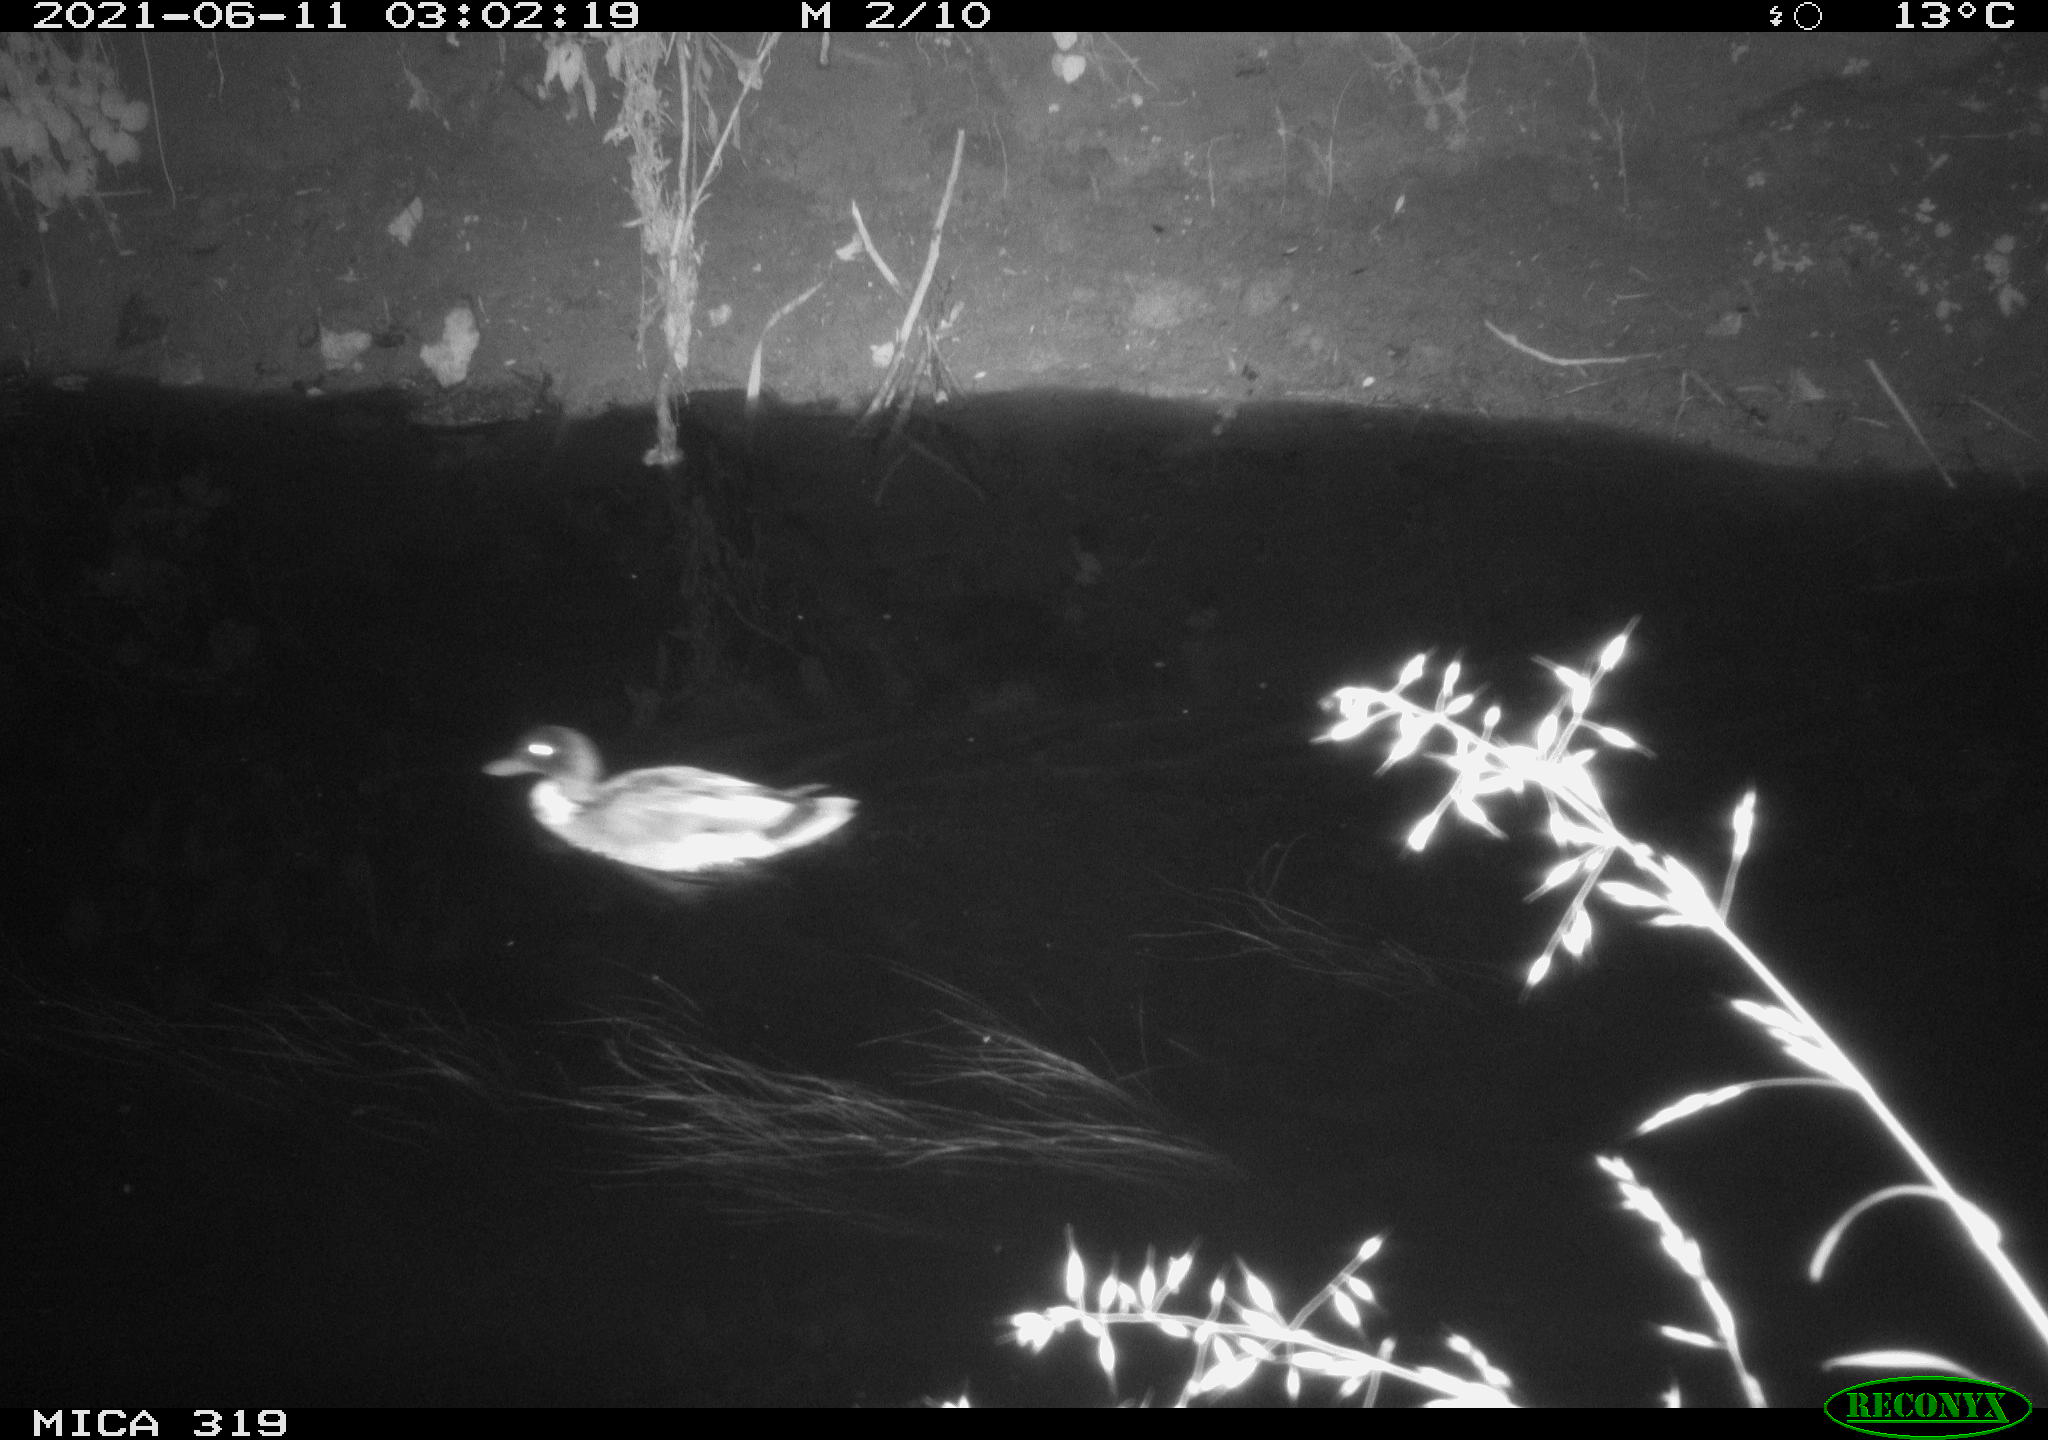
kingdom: Animalia
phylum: Chordata
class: Aves
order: Anseriformes
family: Anatidae
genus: Anas
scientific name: Anas platyrhynchos
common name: Mallard
